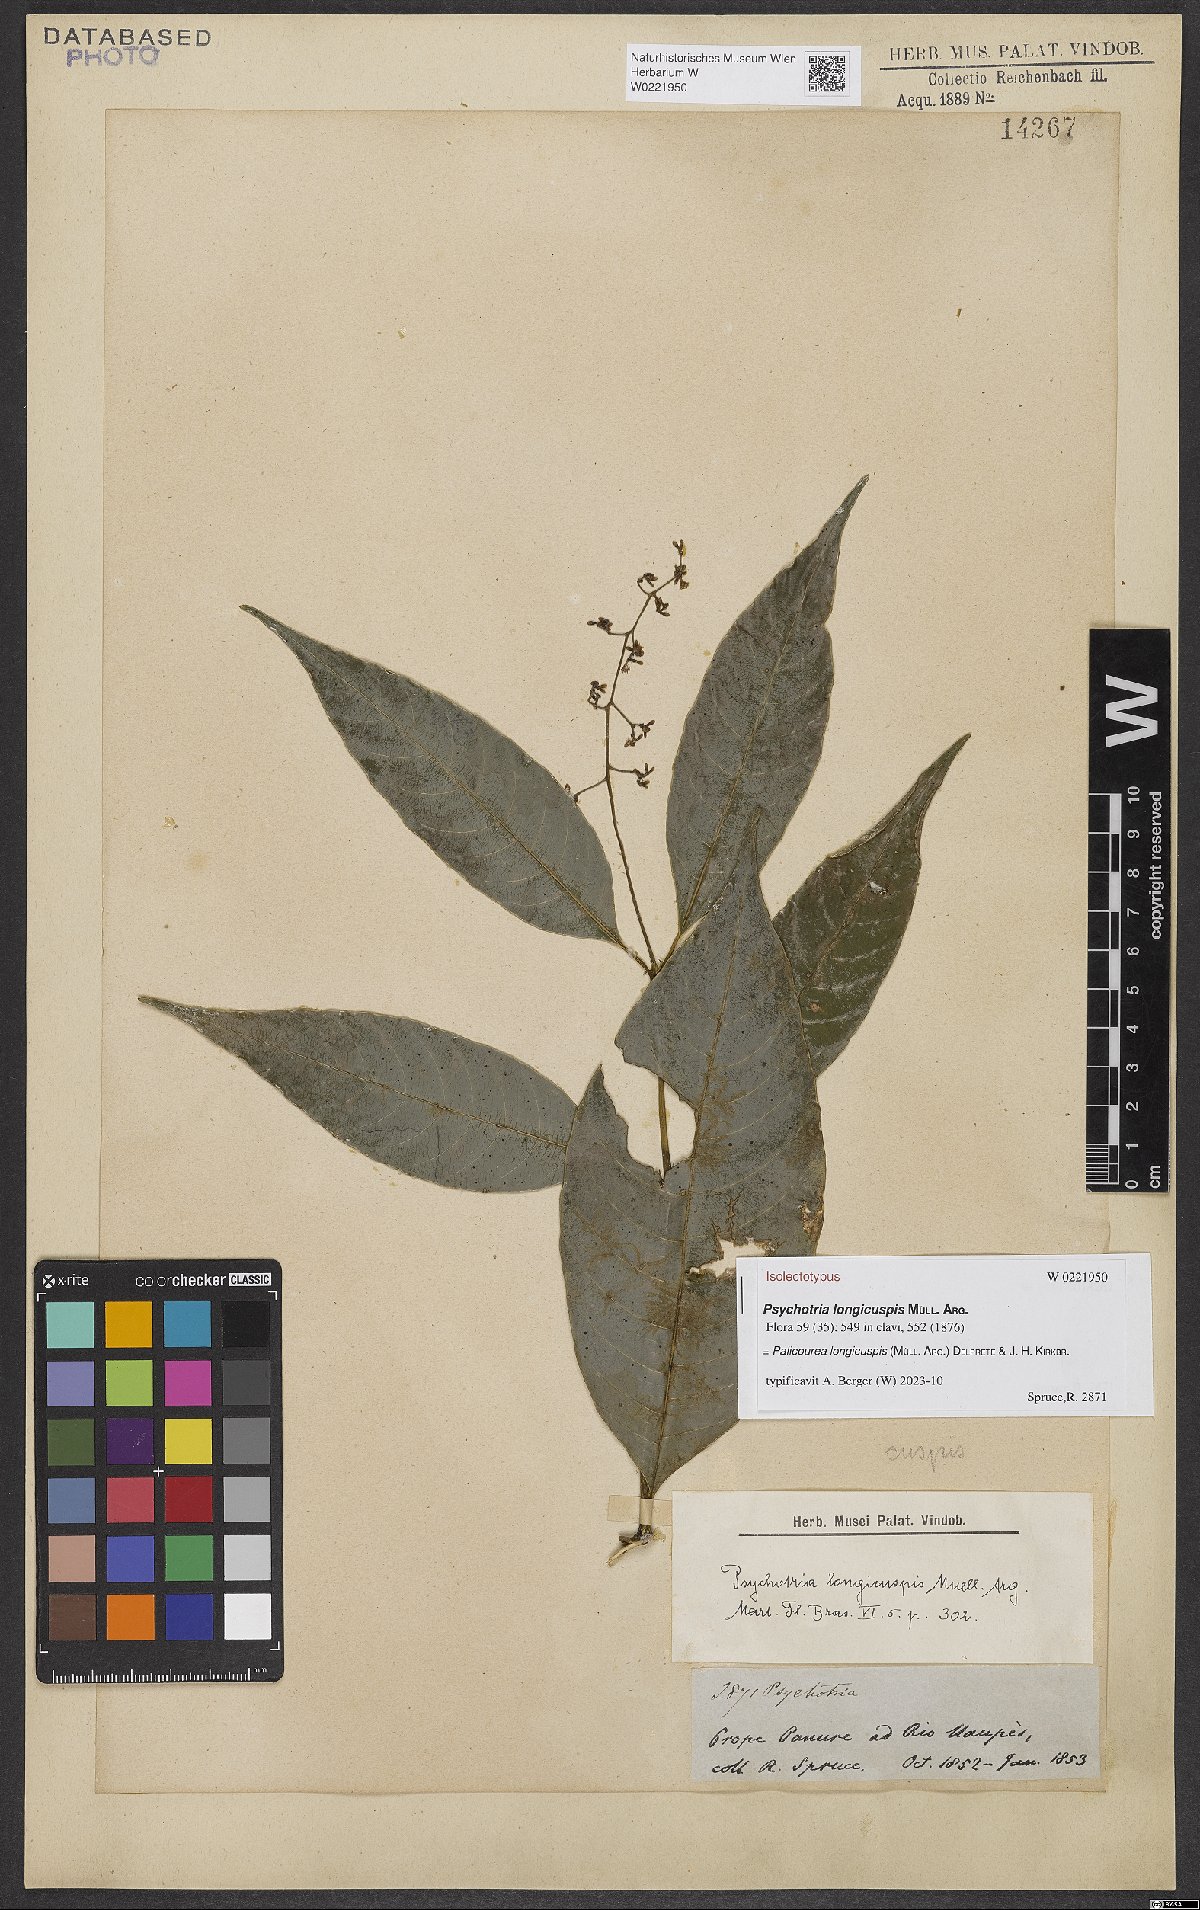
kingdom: Plantae
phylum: Tracheophyta
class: Magnoliopsida
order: Gentianales
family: Rubiaceae
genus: Palicourea
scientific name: Palicourea longicuspis
